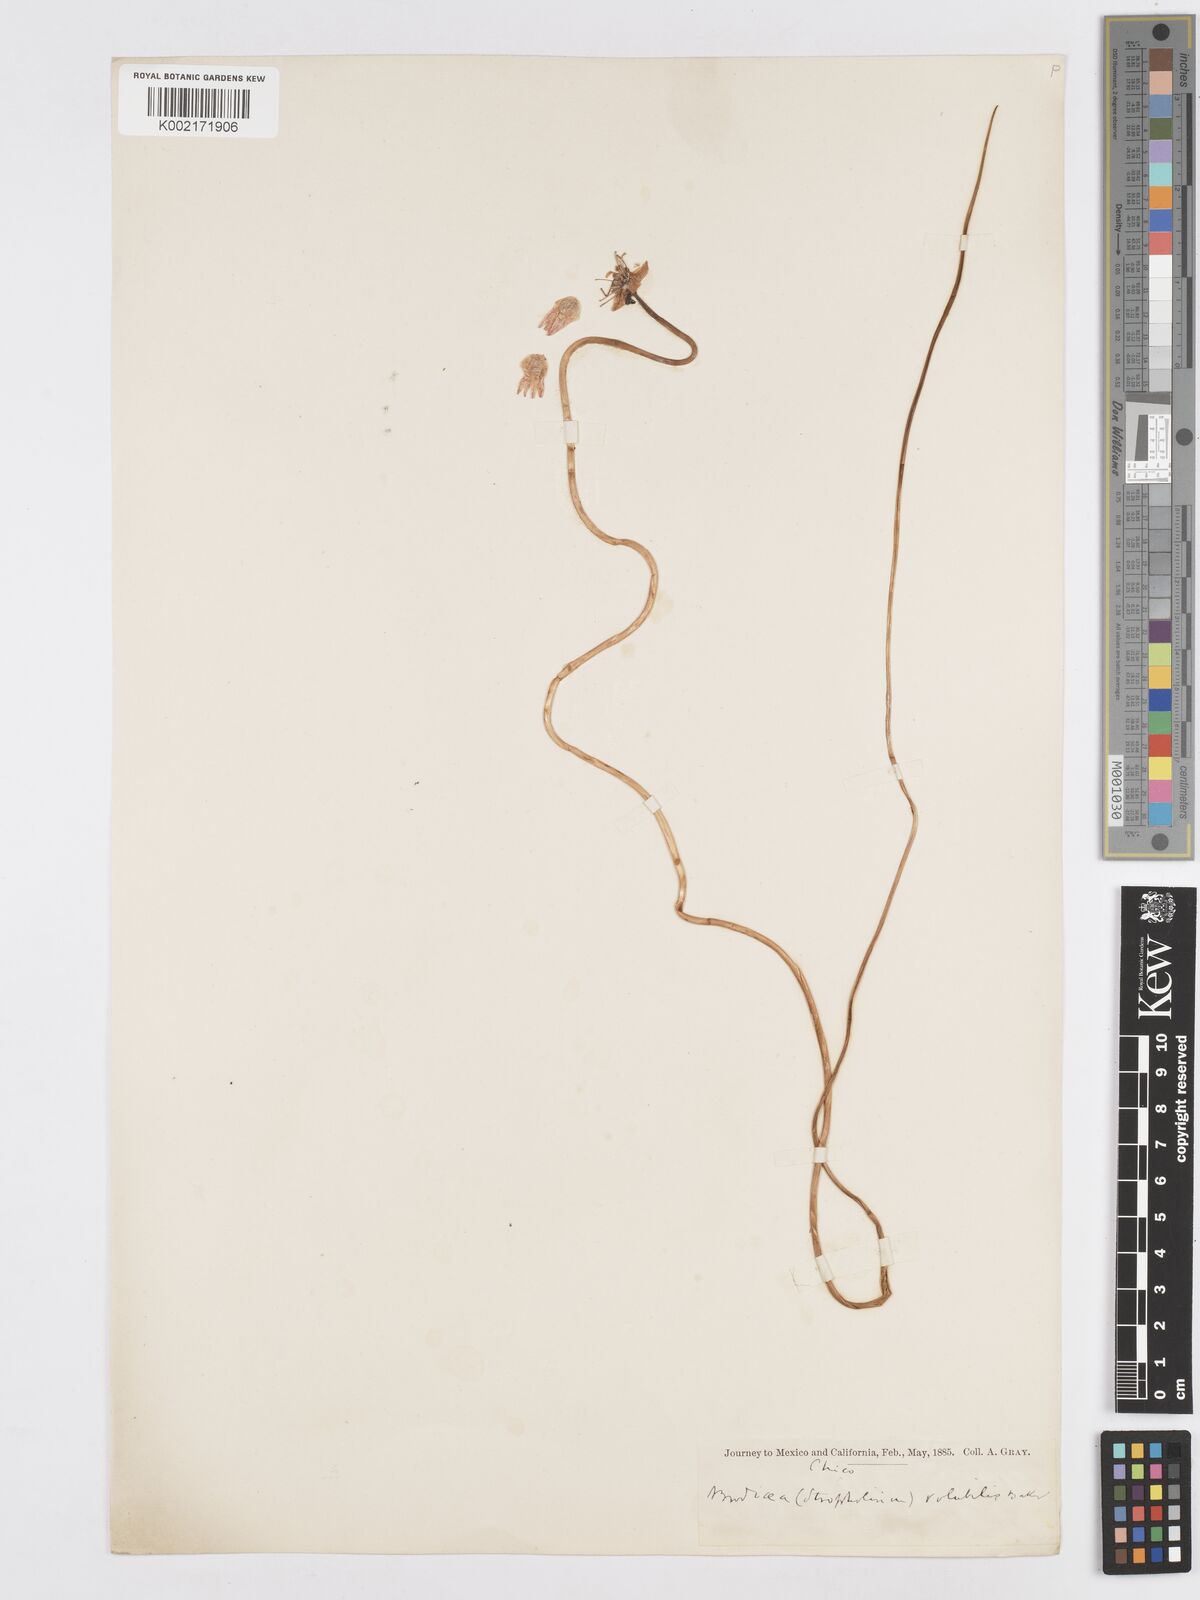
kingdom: Plantae
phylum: Tracheophyta
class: Liliopsida
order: Asparagales
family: Asparagaceae
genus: Dichelostemma
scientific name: Dichelostemma volubile
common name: Trining brodiaea
